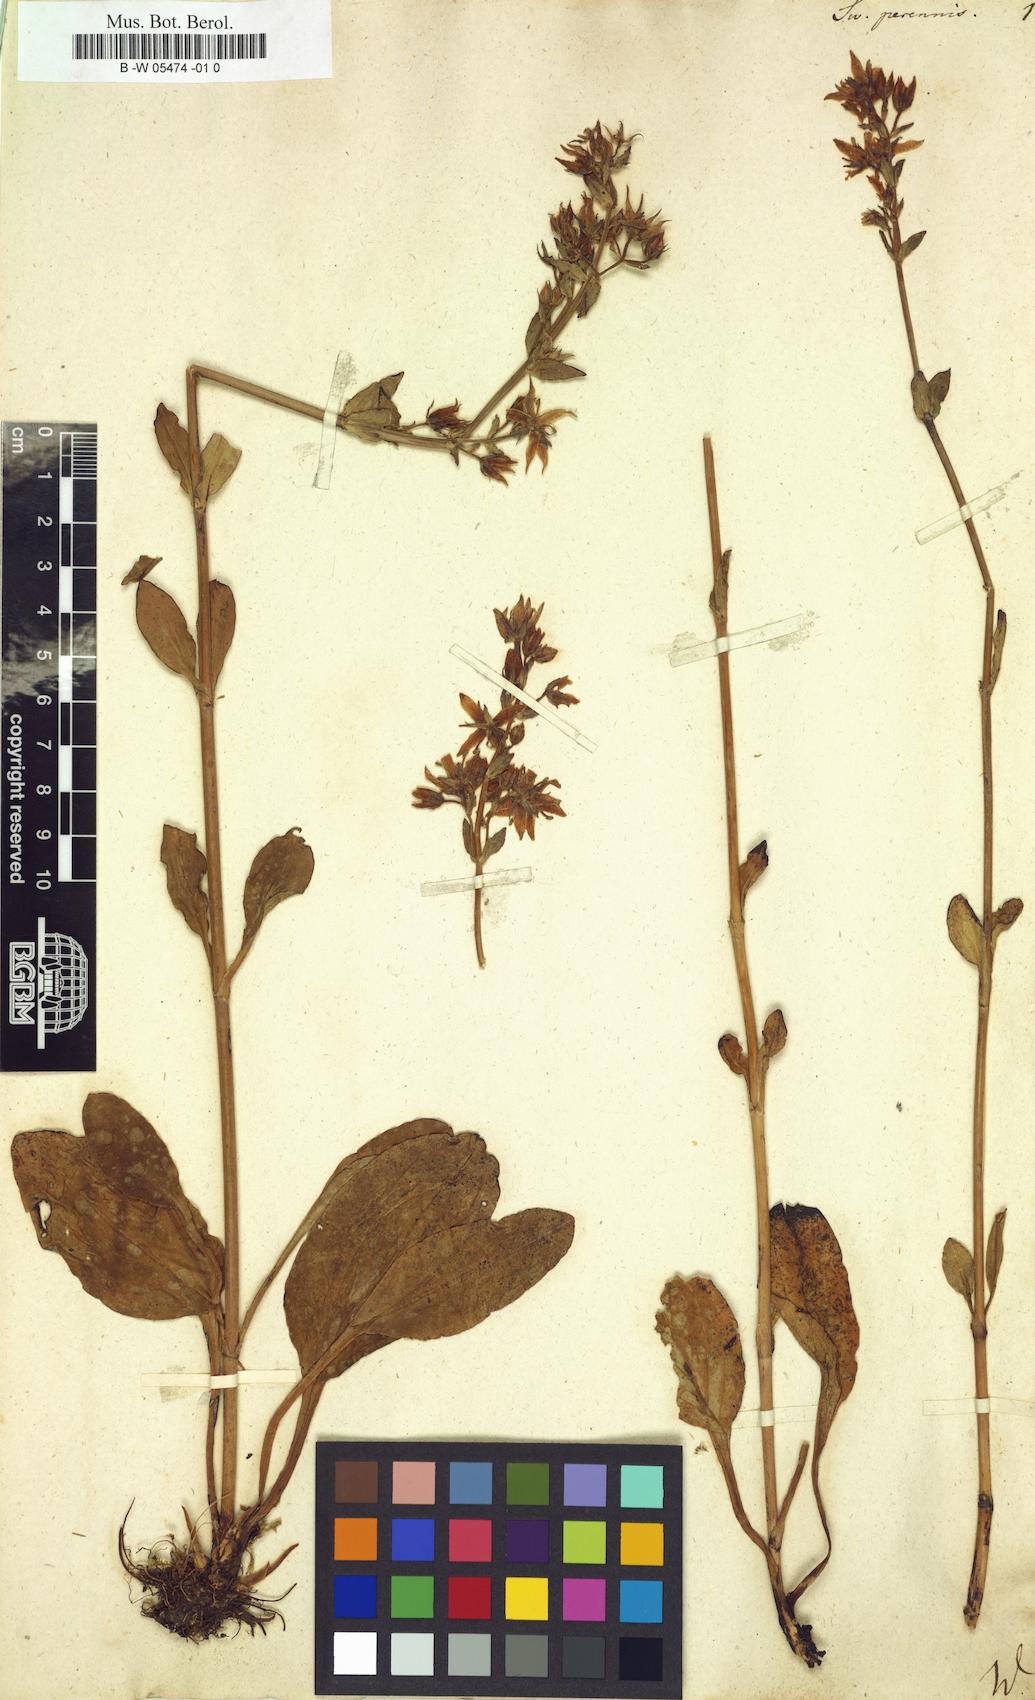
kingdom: Plantae
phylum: Tracheophyta
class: Magnoliopsida
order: Gentianales
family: Gentianaceae
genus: Swertia
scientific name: Swertia perennis
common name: Alpine bog swertia
